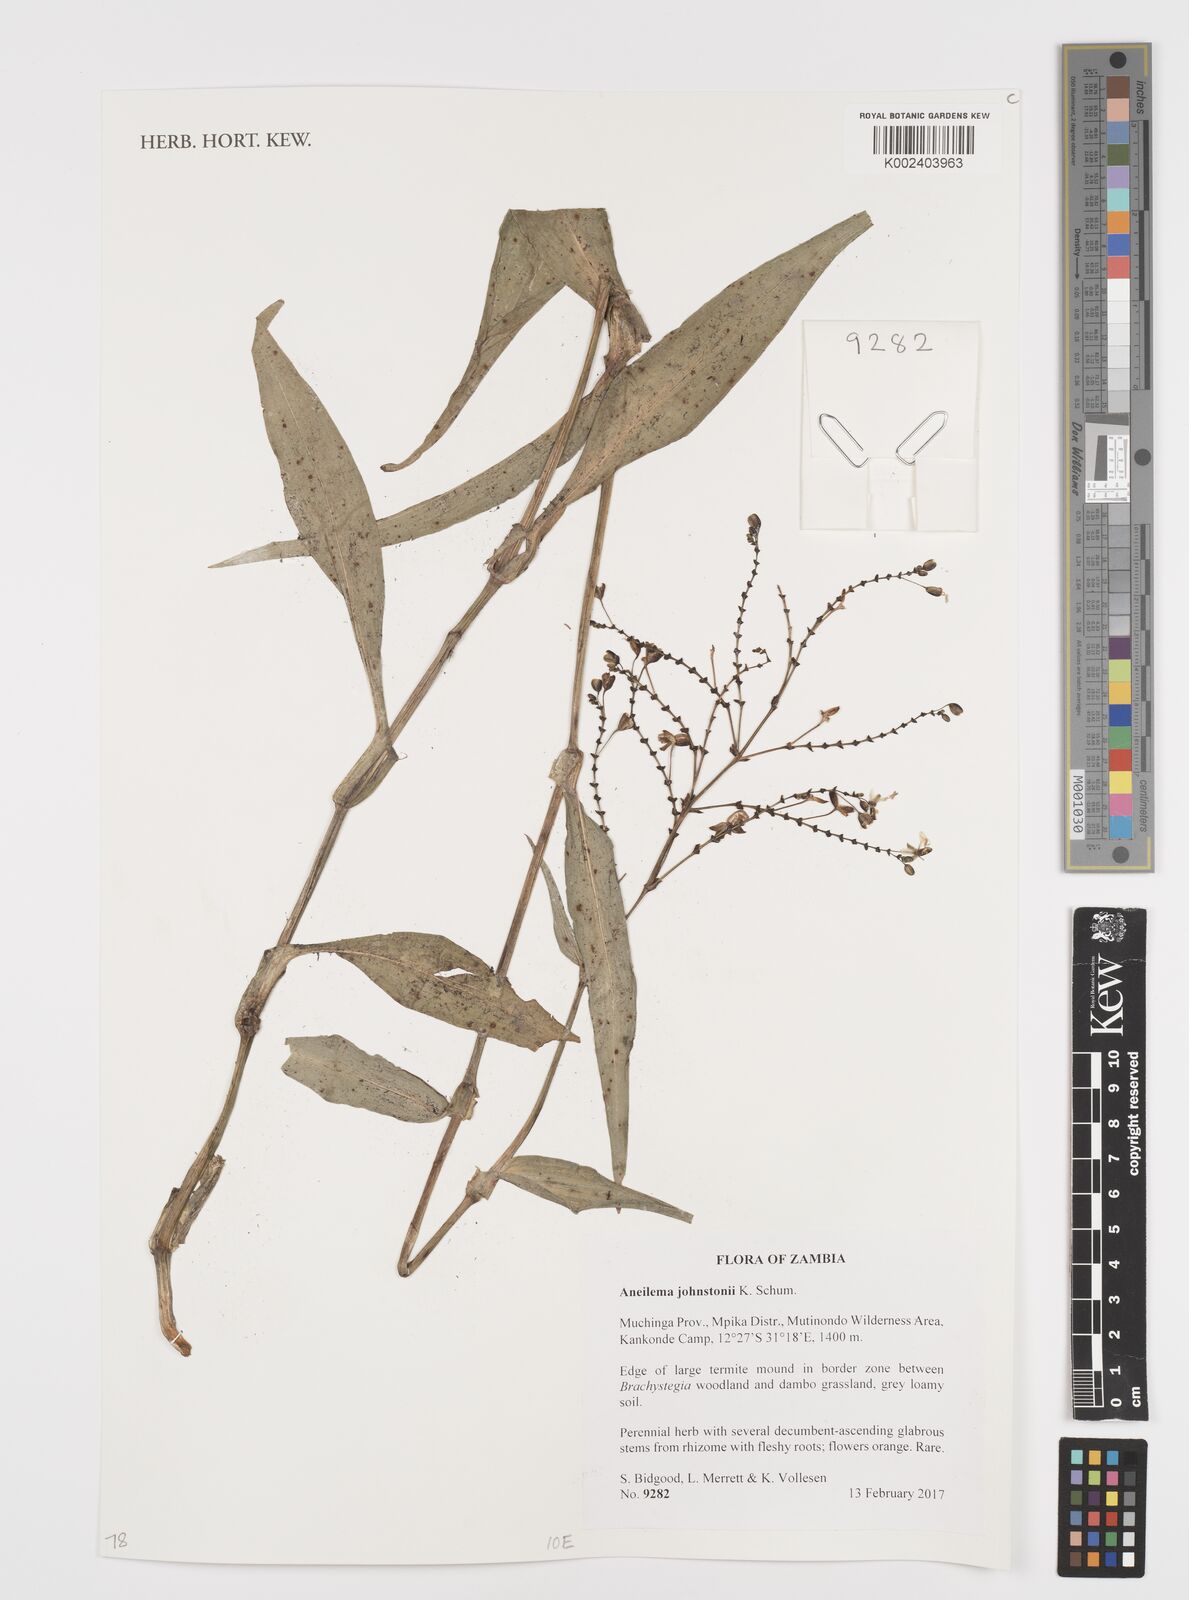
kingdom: Plantae
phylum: Tracheophyta
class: Liliopsida
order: Commelinales
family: Commelinaceae
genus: Aneilema
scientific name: Aneilema johnstonii
